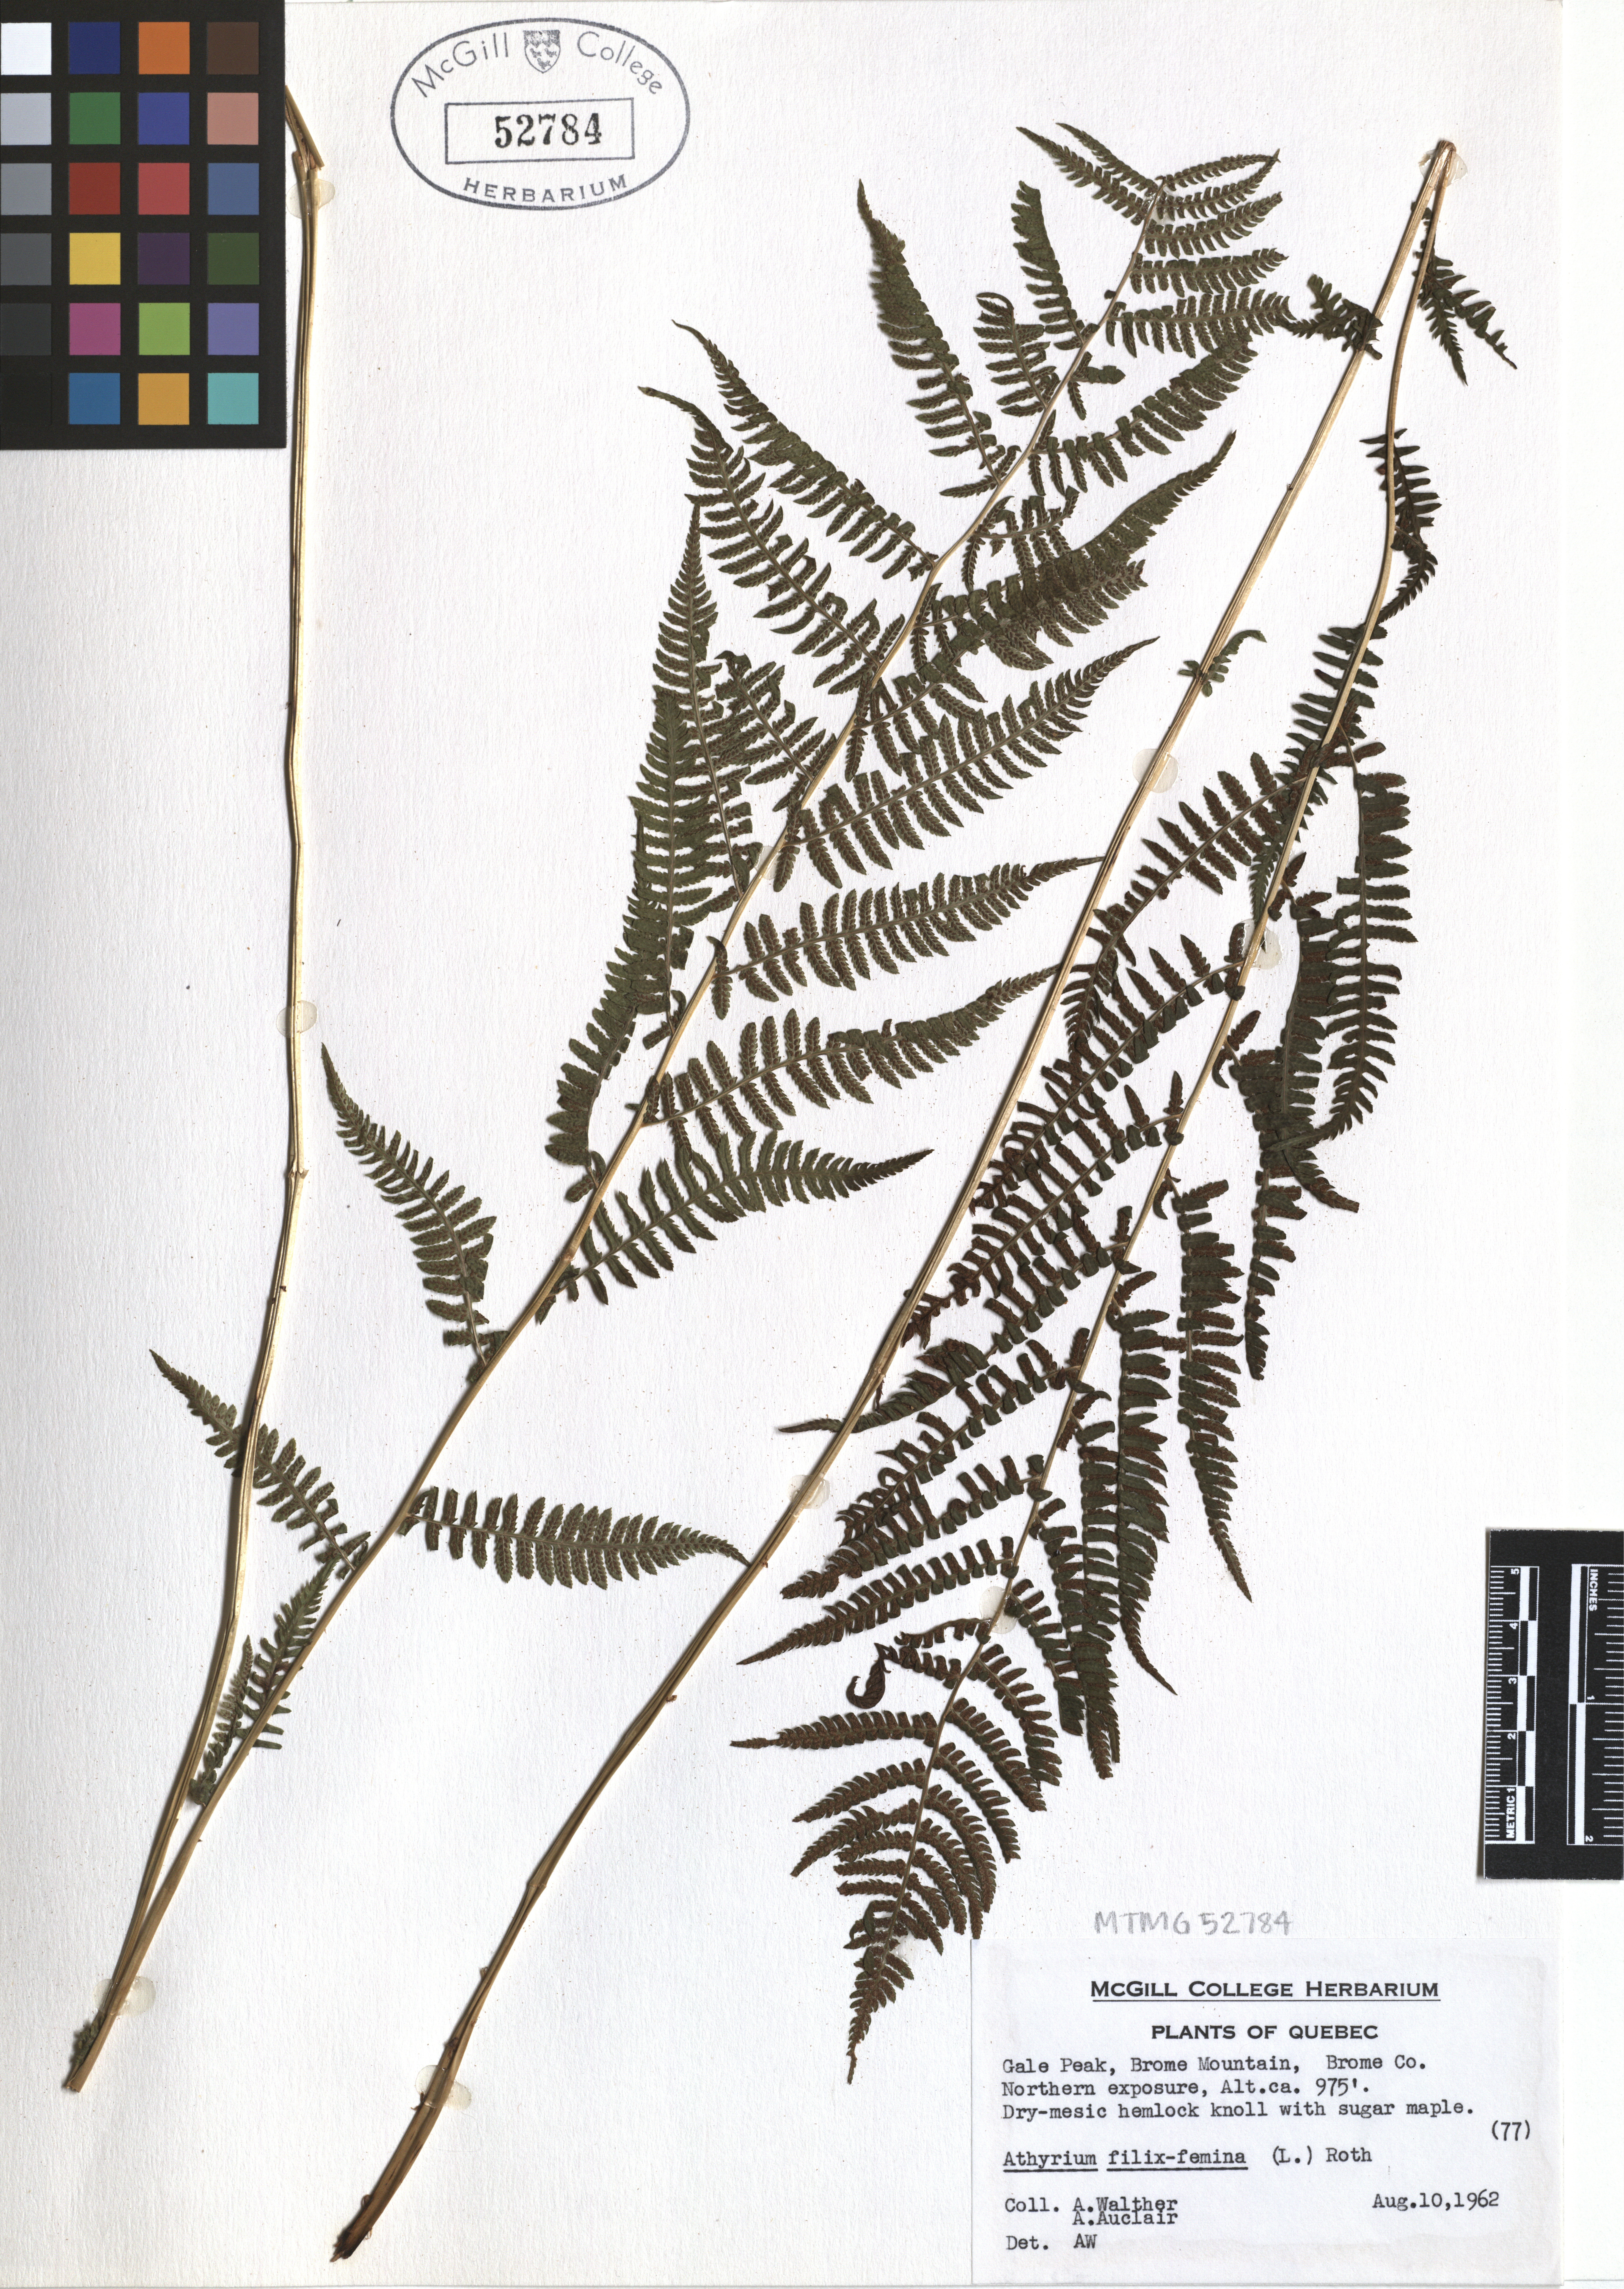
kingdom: Plantae
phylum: Tracheophyta
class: Polypodiopsida
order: Polypodiales
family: Athyriaceae
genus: Athyrium
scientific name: Athyrium filix-femina
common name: Lady fern
